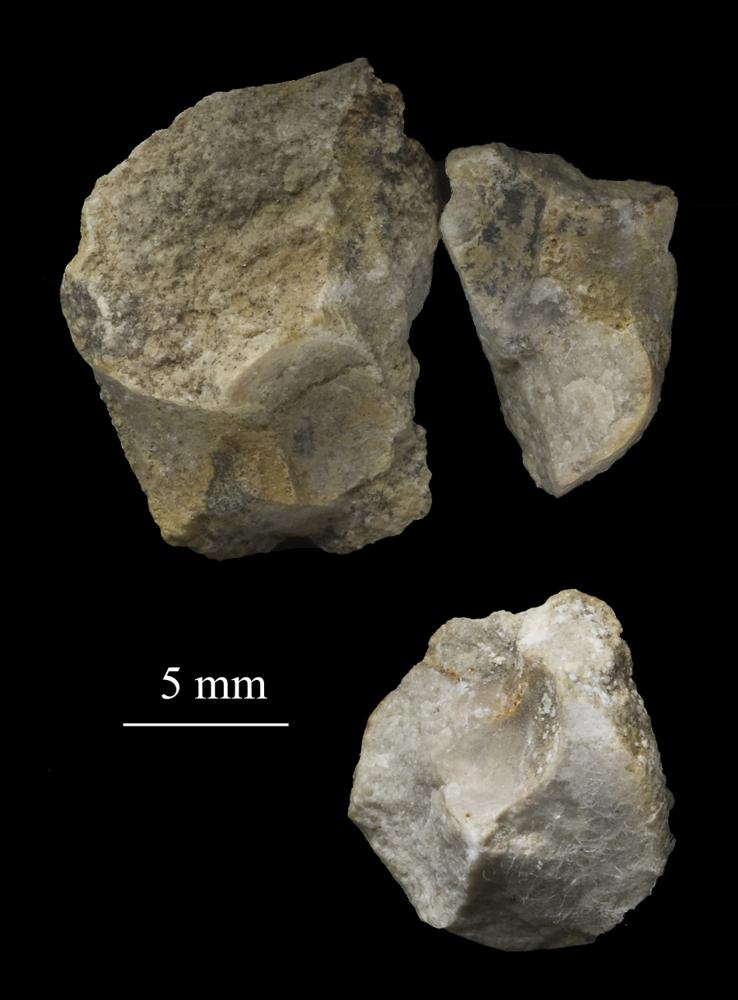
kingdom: Animalia
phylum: Mollusca
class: Gastropoda
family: Bucaniidae
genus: Tetranota
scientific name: Tetranota Bucaniella jugata
